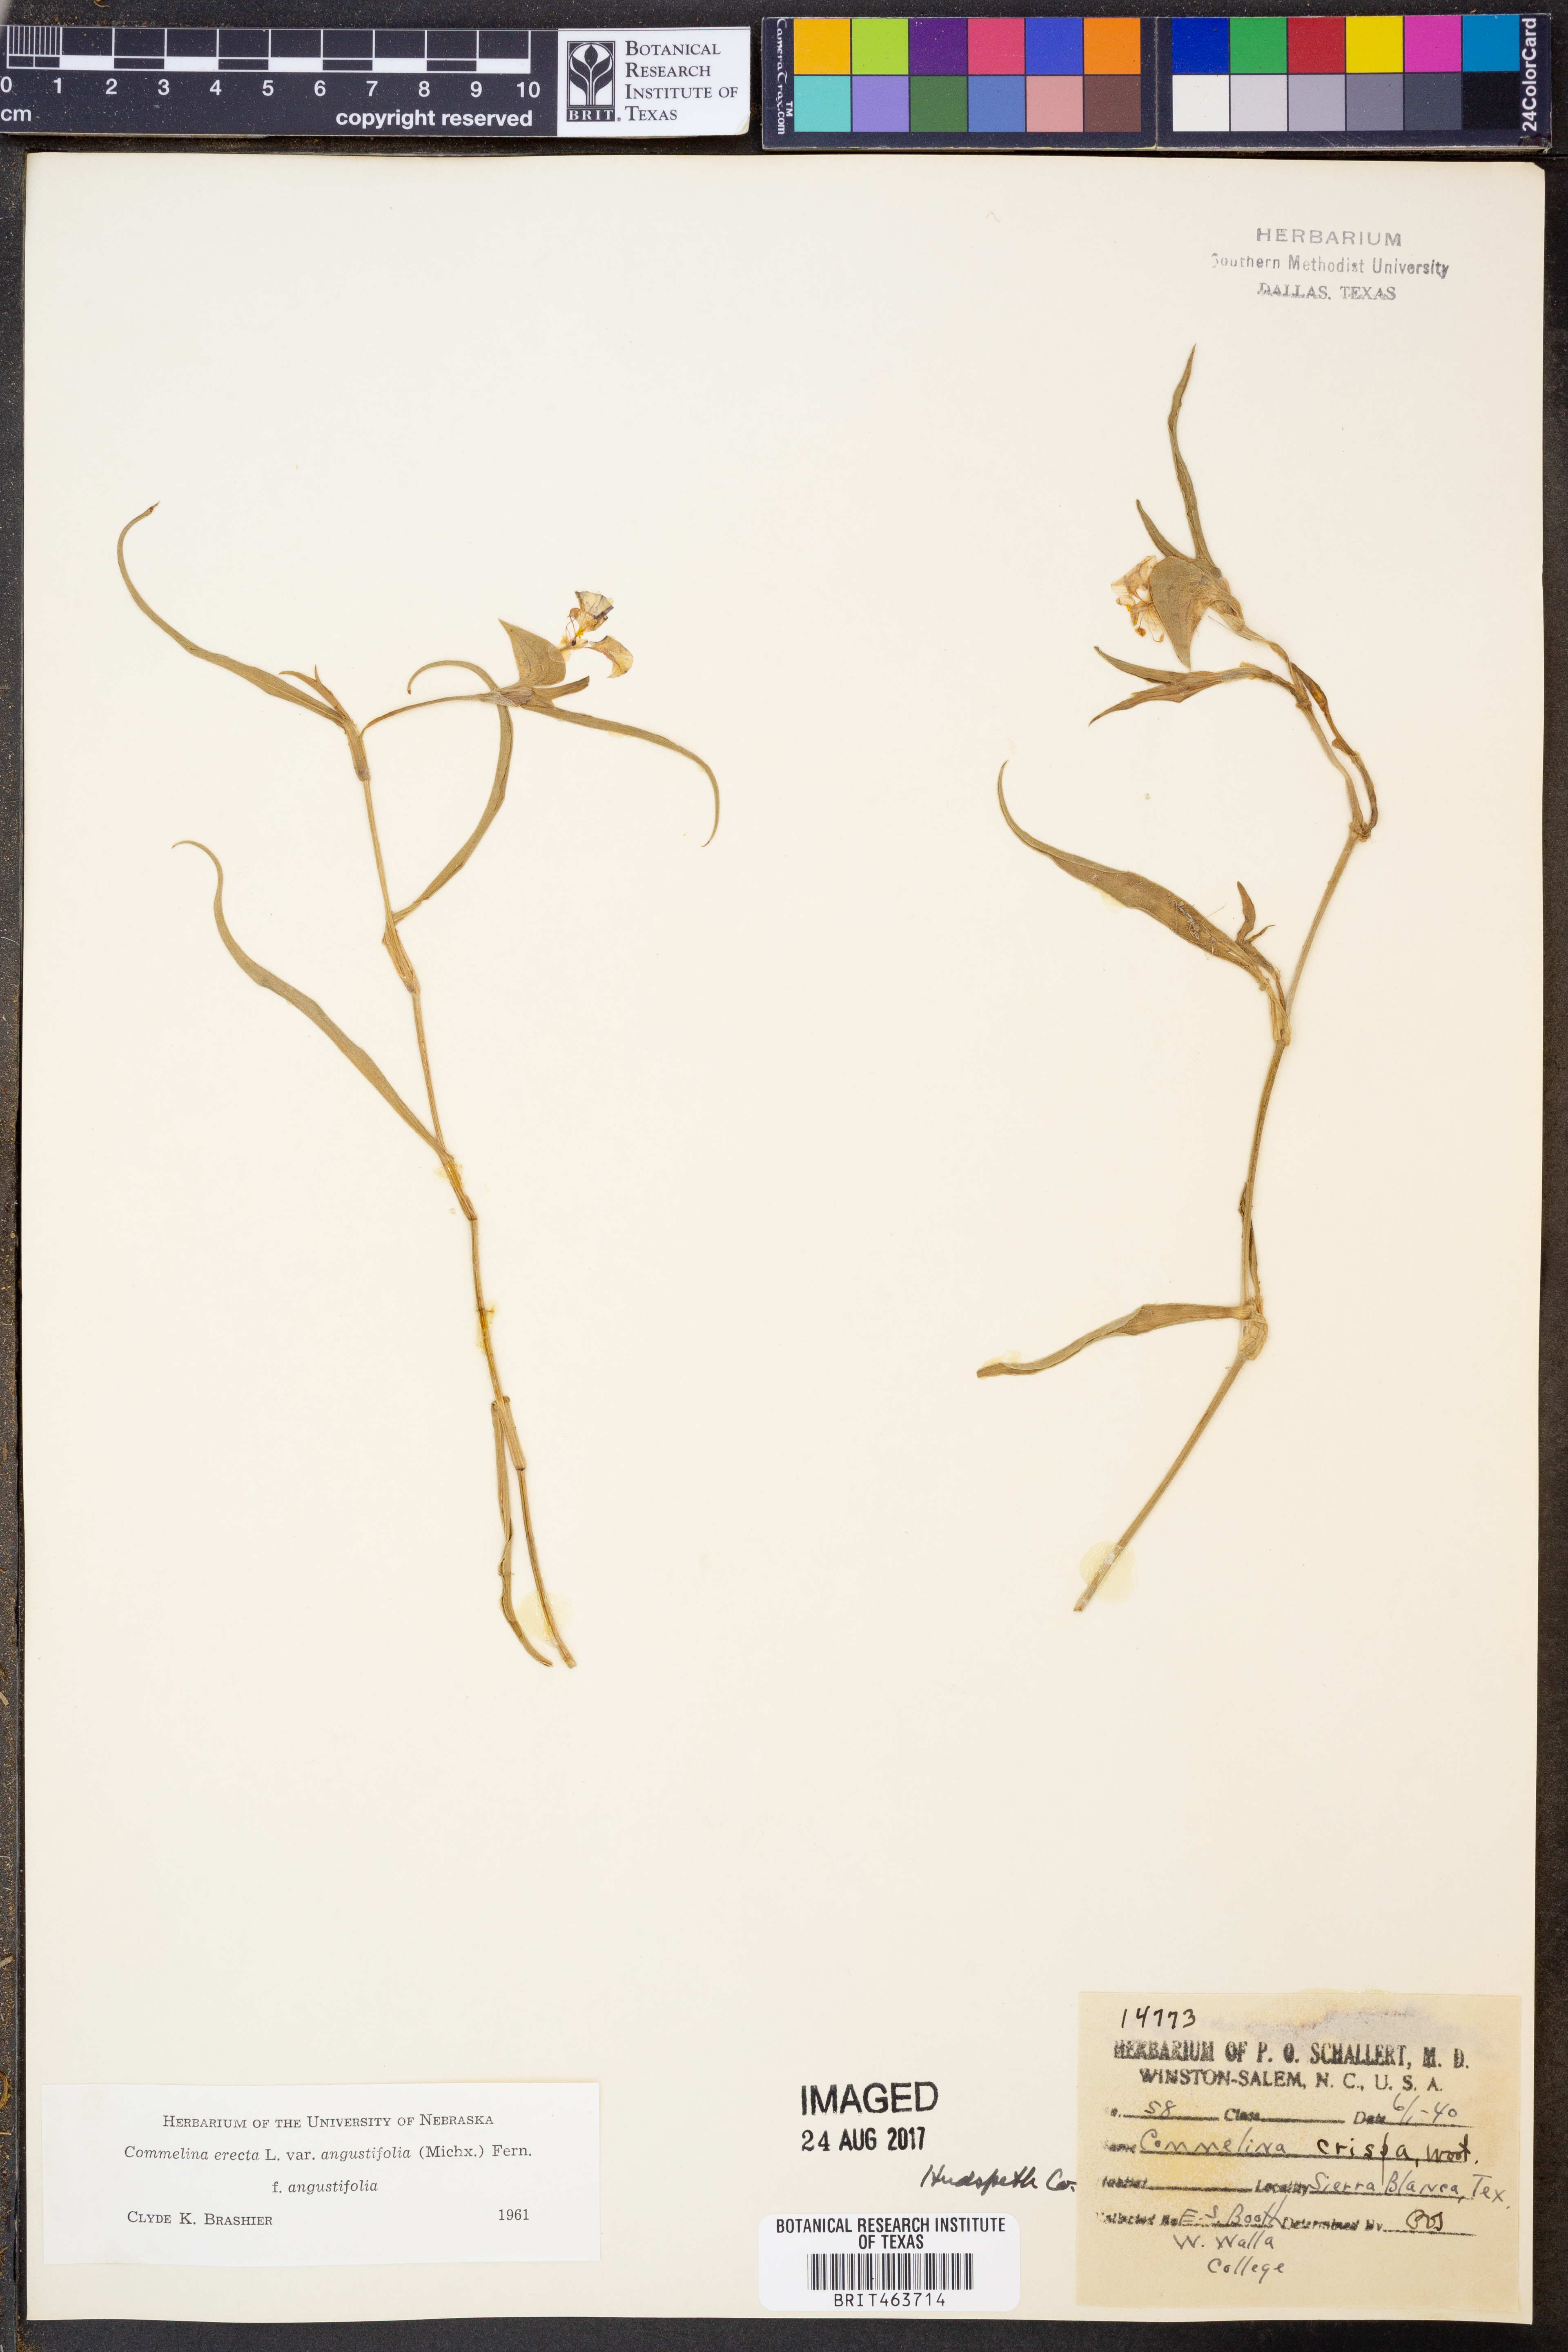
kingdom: Plantae
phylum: Tracheophyta
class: Liliopsida
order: Commelinales
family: Commelinaceae
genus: Commelina
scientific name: Commelina erecta
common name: Blousel blommetjie
